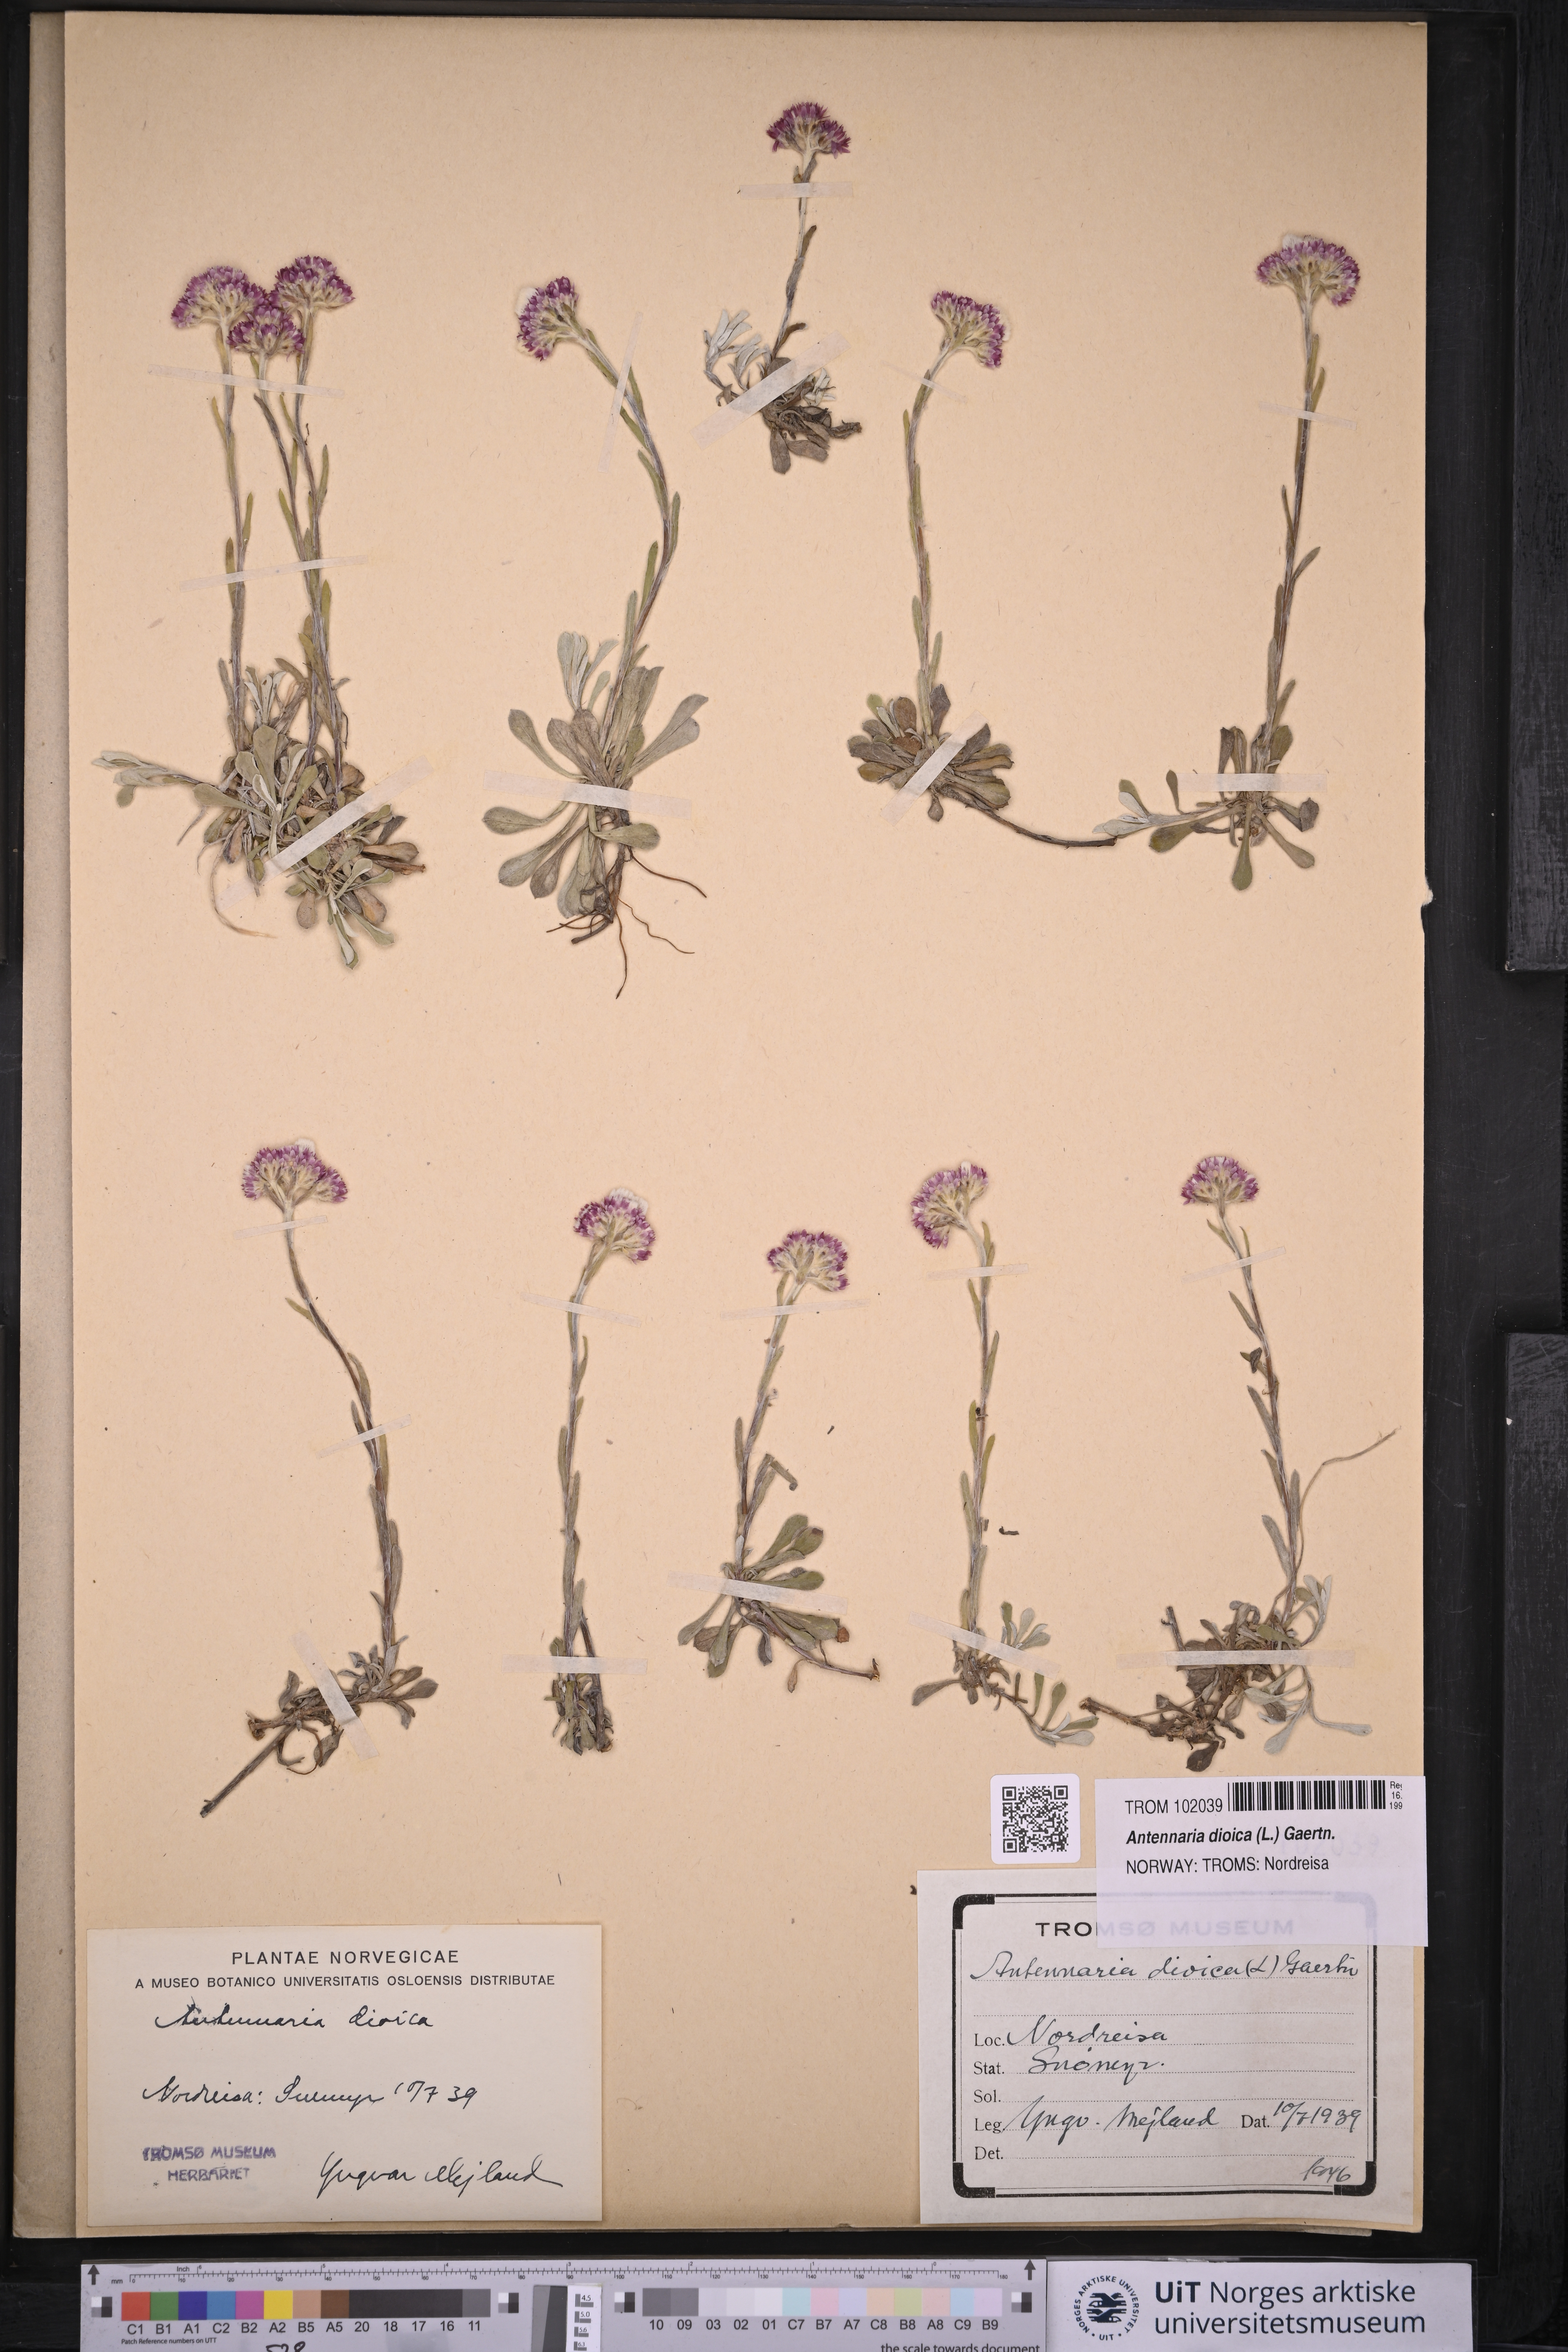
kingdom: Plantae
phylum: Tracheophyta
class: Magnoliopsida
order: Asterales
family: Asteraceae
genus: Antennaria
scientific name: Antennaria dioica
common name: Mountain everlasting
